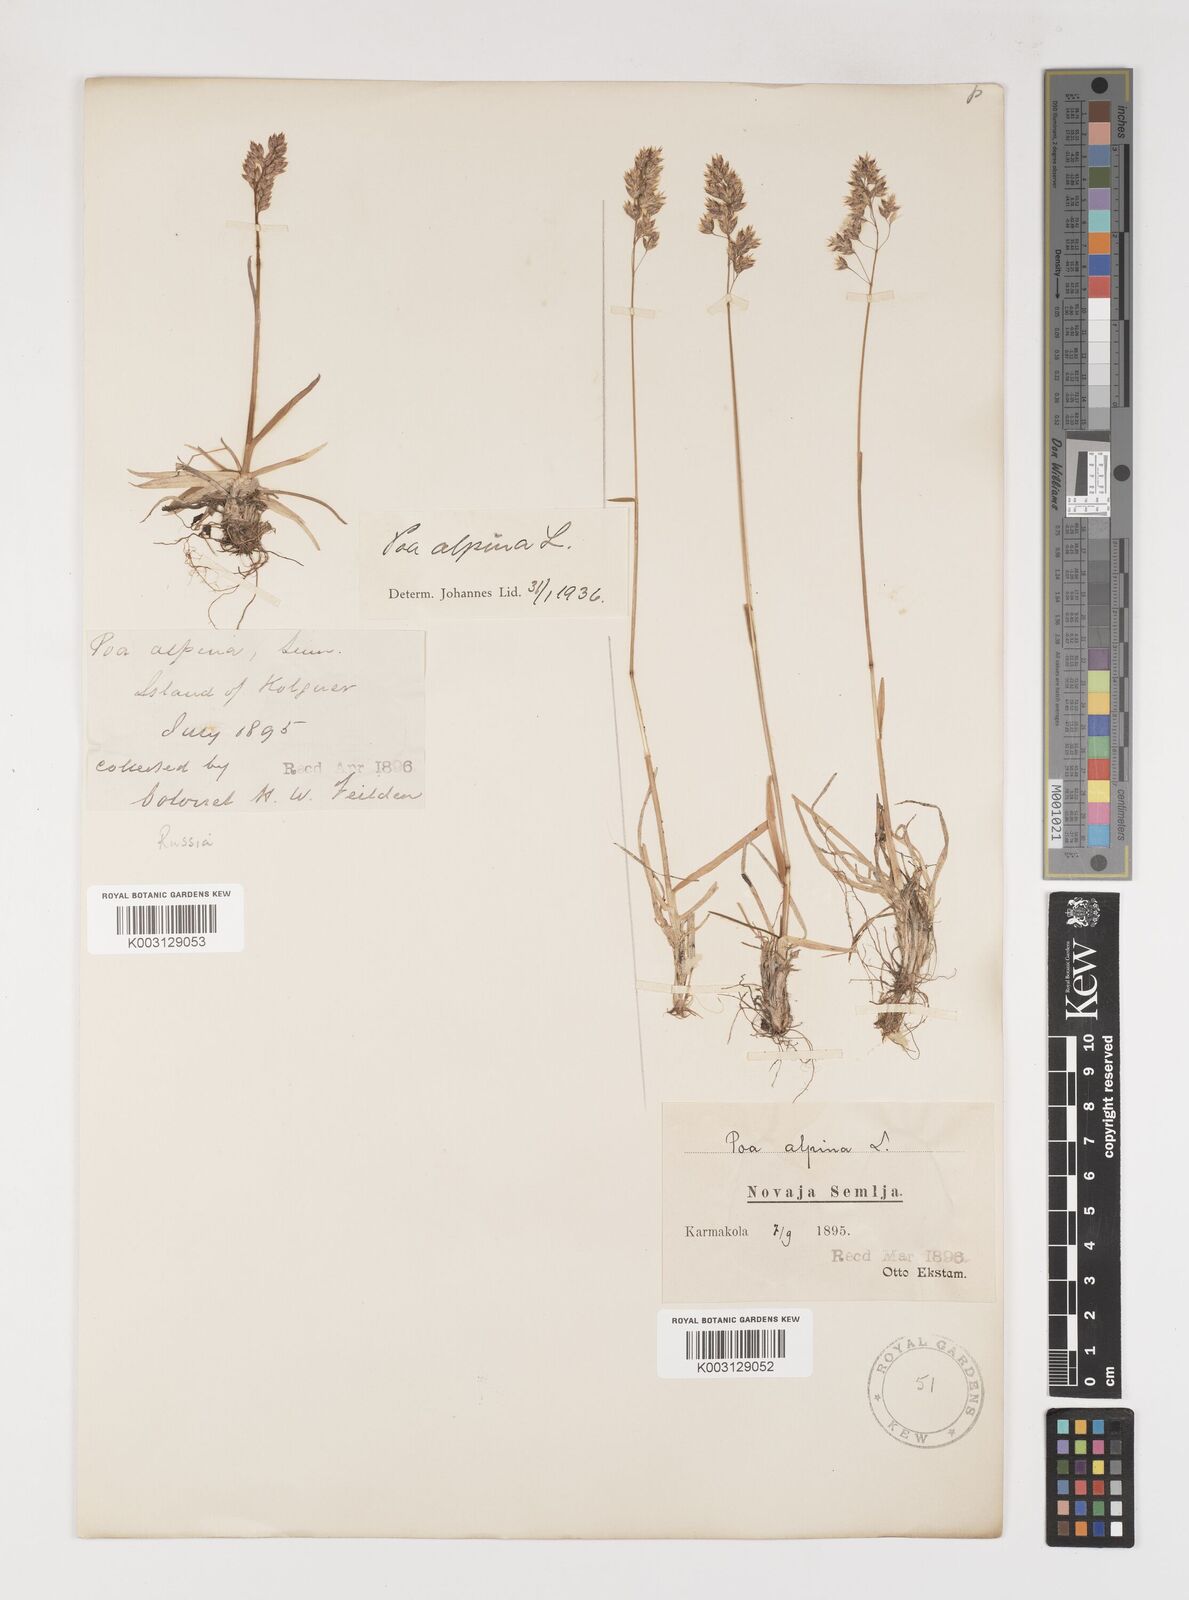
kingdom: Plantae
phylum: Tracheophyta
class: Liliopsida
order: Poales
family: Poaceae
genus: Poa
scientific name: Poa alpina
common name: Alpine bluegrass
